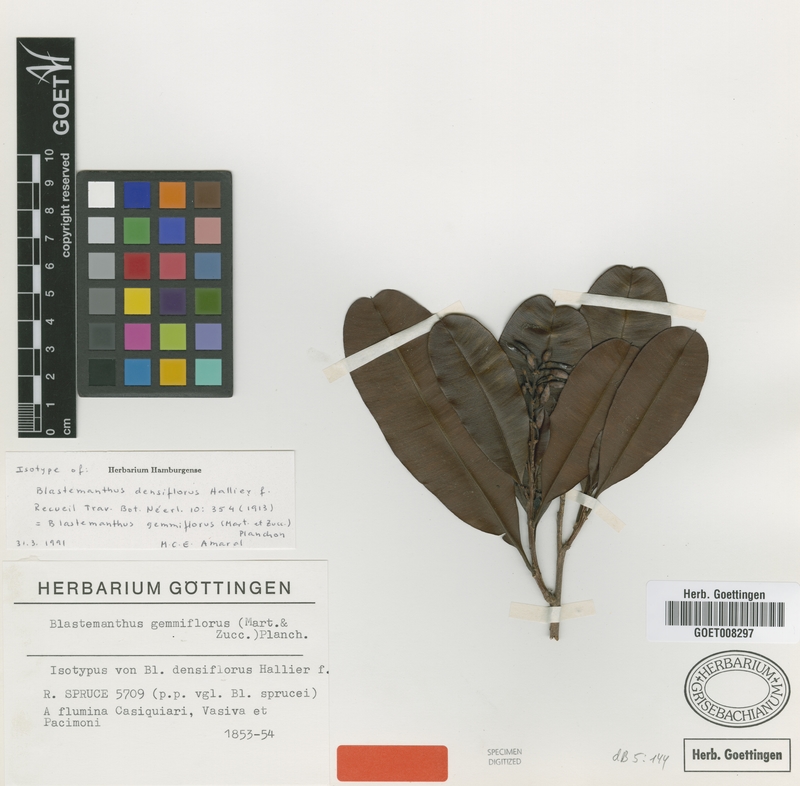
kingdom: Plantae
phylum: Tracheophyta
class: Magnoliopsida
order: Malpighiales
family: Ochnaceae
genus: Blastemanthus
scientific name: Blastemanthus gemmiflorus
